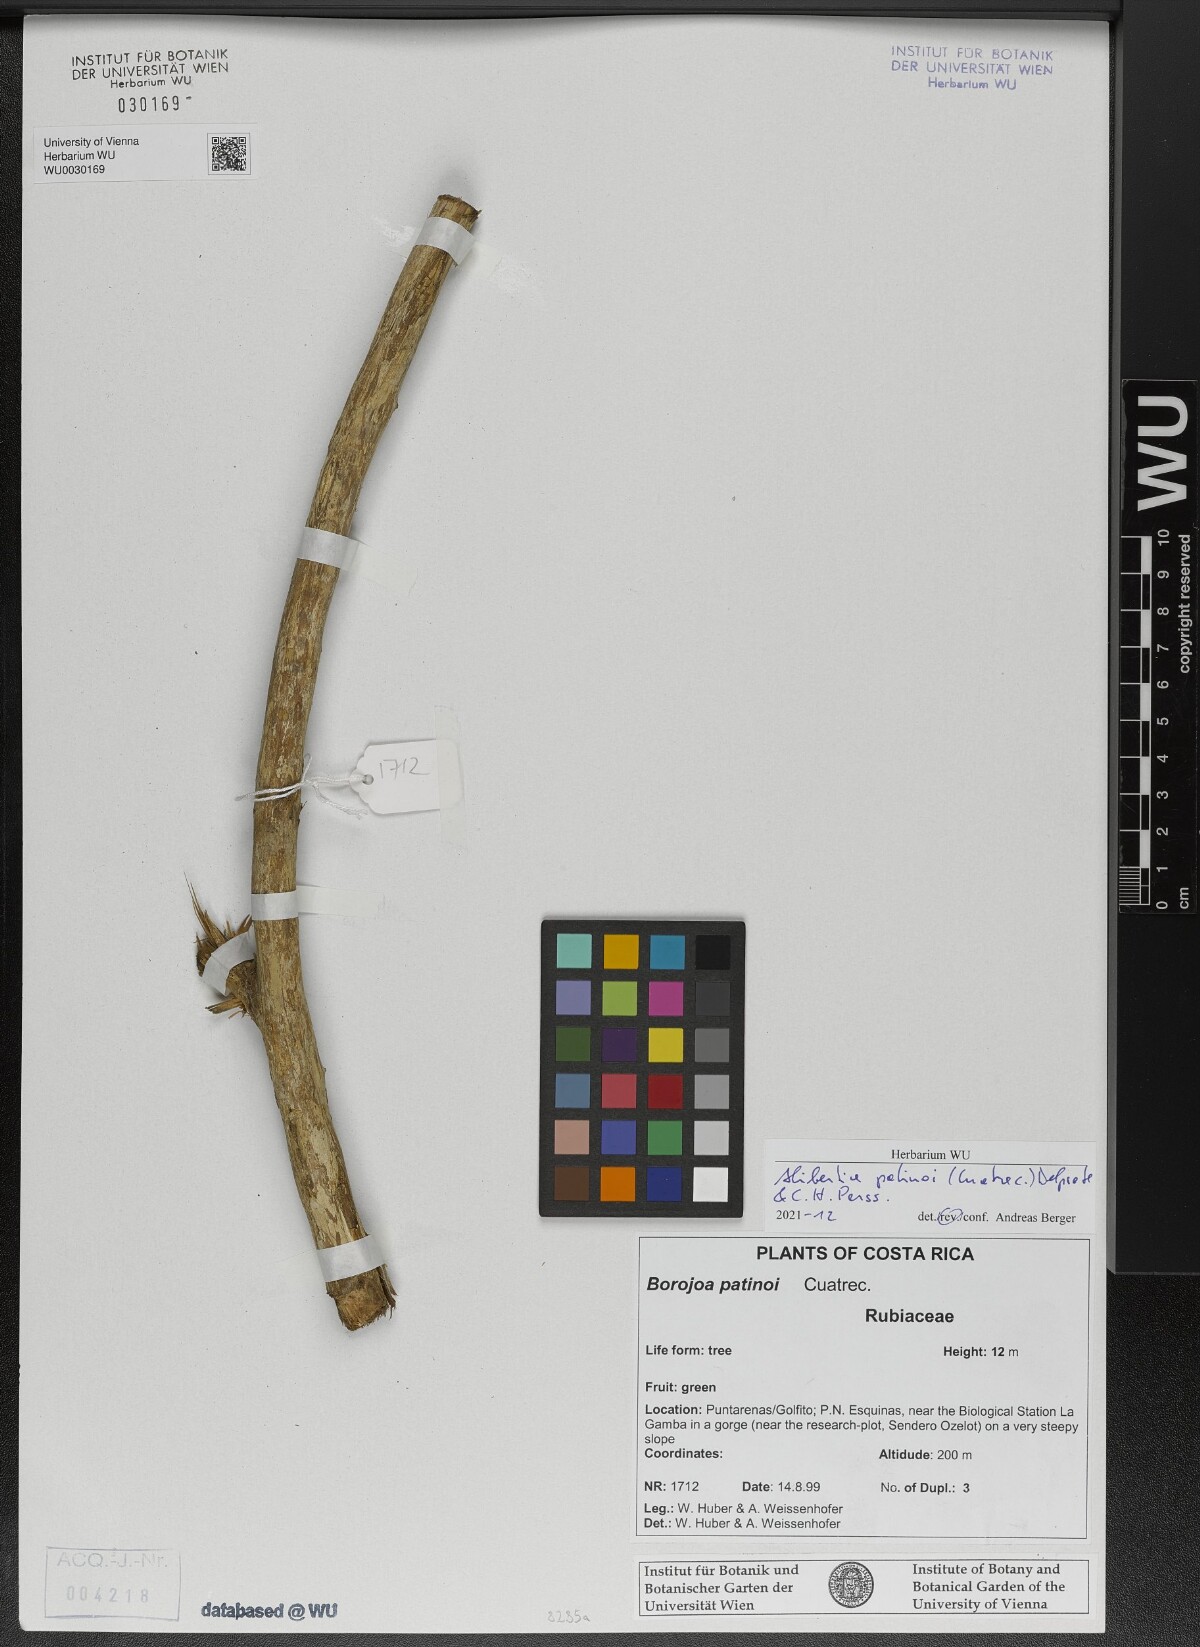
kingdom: Plantae
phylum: Tracheophyta
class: Magnoliopsida
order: Gentianales
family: Rubiaceae
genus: Alibertia
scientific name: Alibertia patinoi
